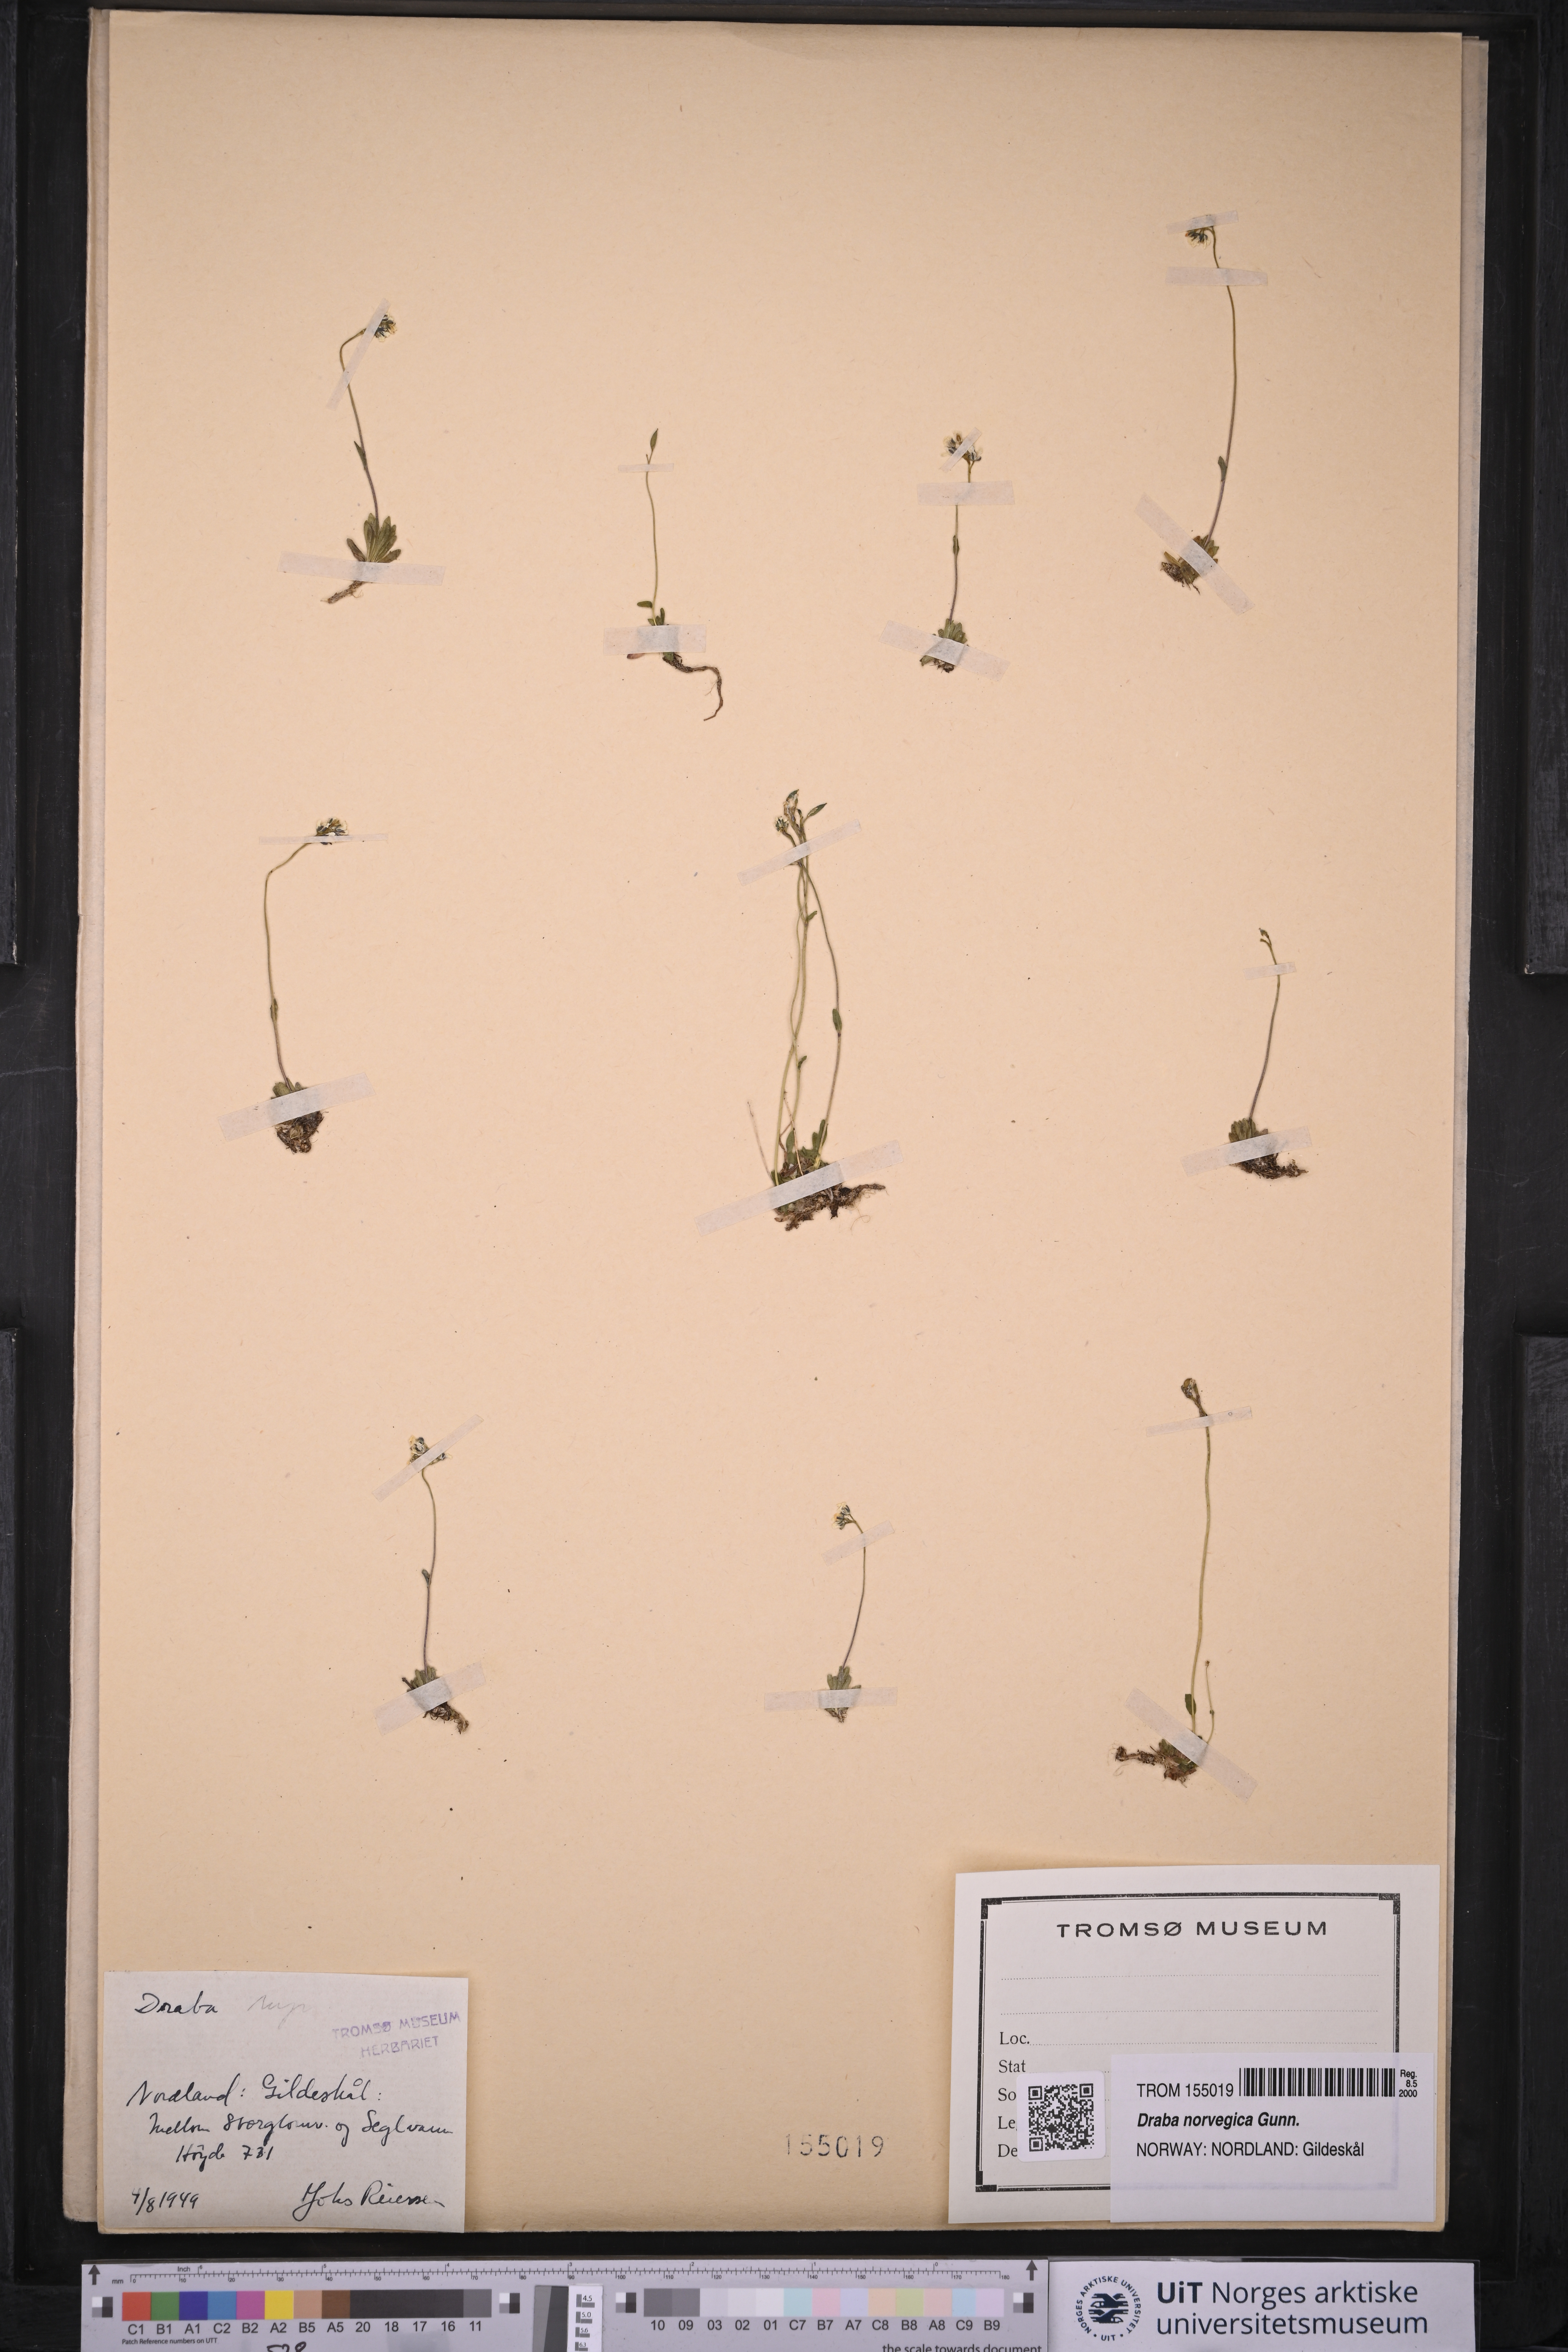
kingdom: Plantae
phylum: Tracheophyta
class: Magnoliopsida
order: Brassicales
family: Brassicaceae
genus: Draba
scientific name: Draba norvegica
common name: Rock whitlowgrass
